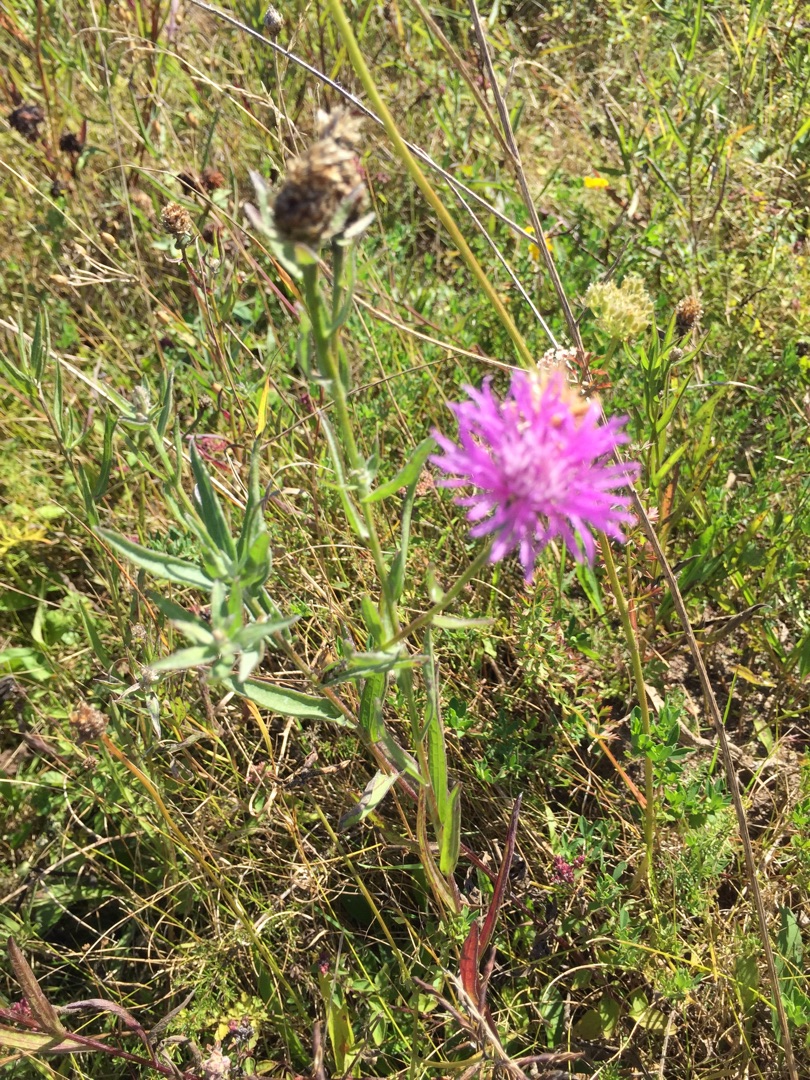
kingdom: Plantae
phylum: Tracheophyta
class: Magnoliopsida
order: Asterales
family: Asteraceae
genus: Centaurea
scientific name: Centaurea jacea
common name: Almindelig knopurt
